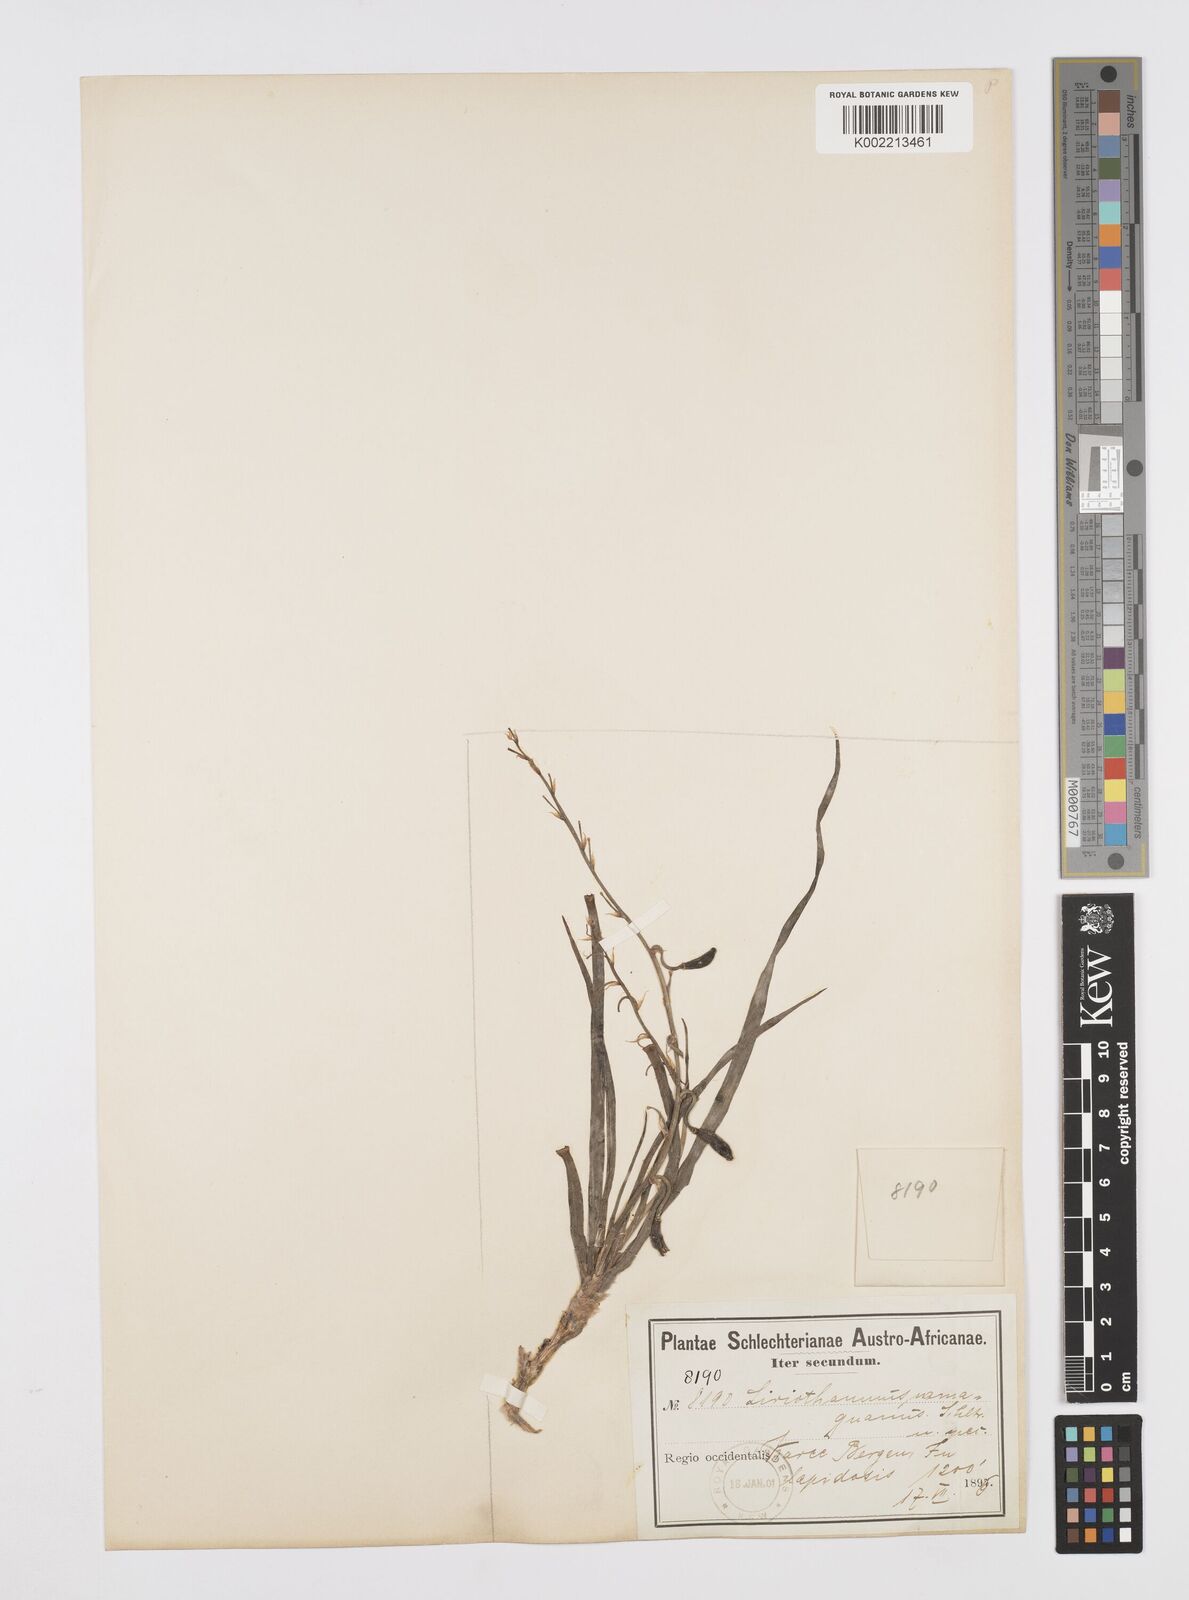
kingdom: Plantae
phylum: Tracheophyta
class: Liliopsida
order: Asparagales
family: Asphodelaceae
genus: Trachyandra
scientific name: Trachyandra involucrata
